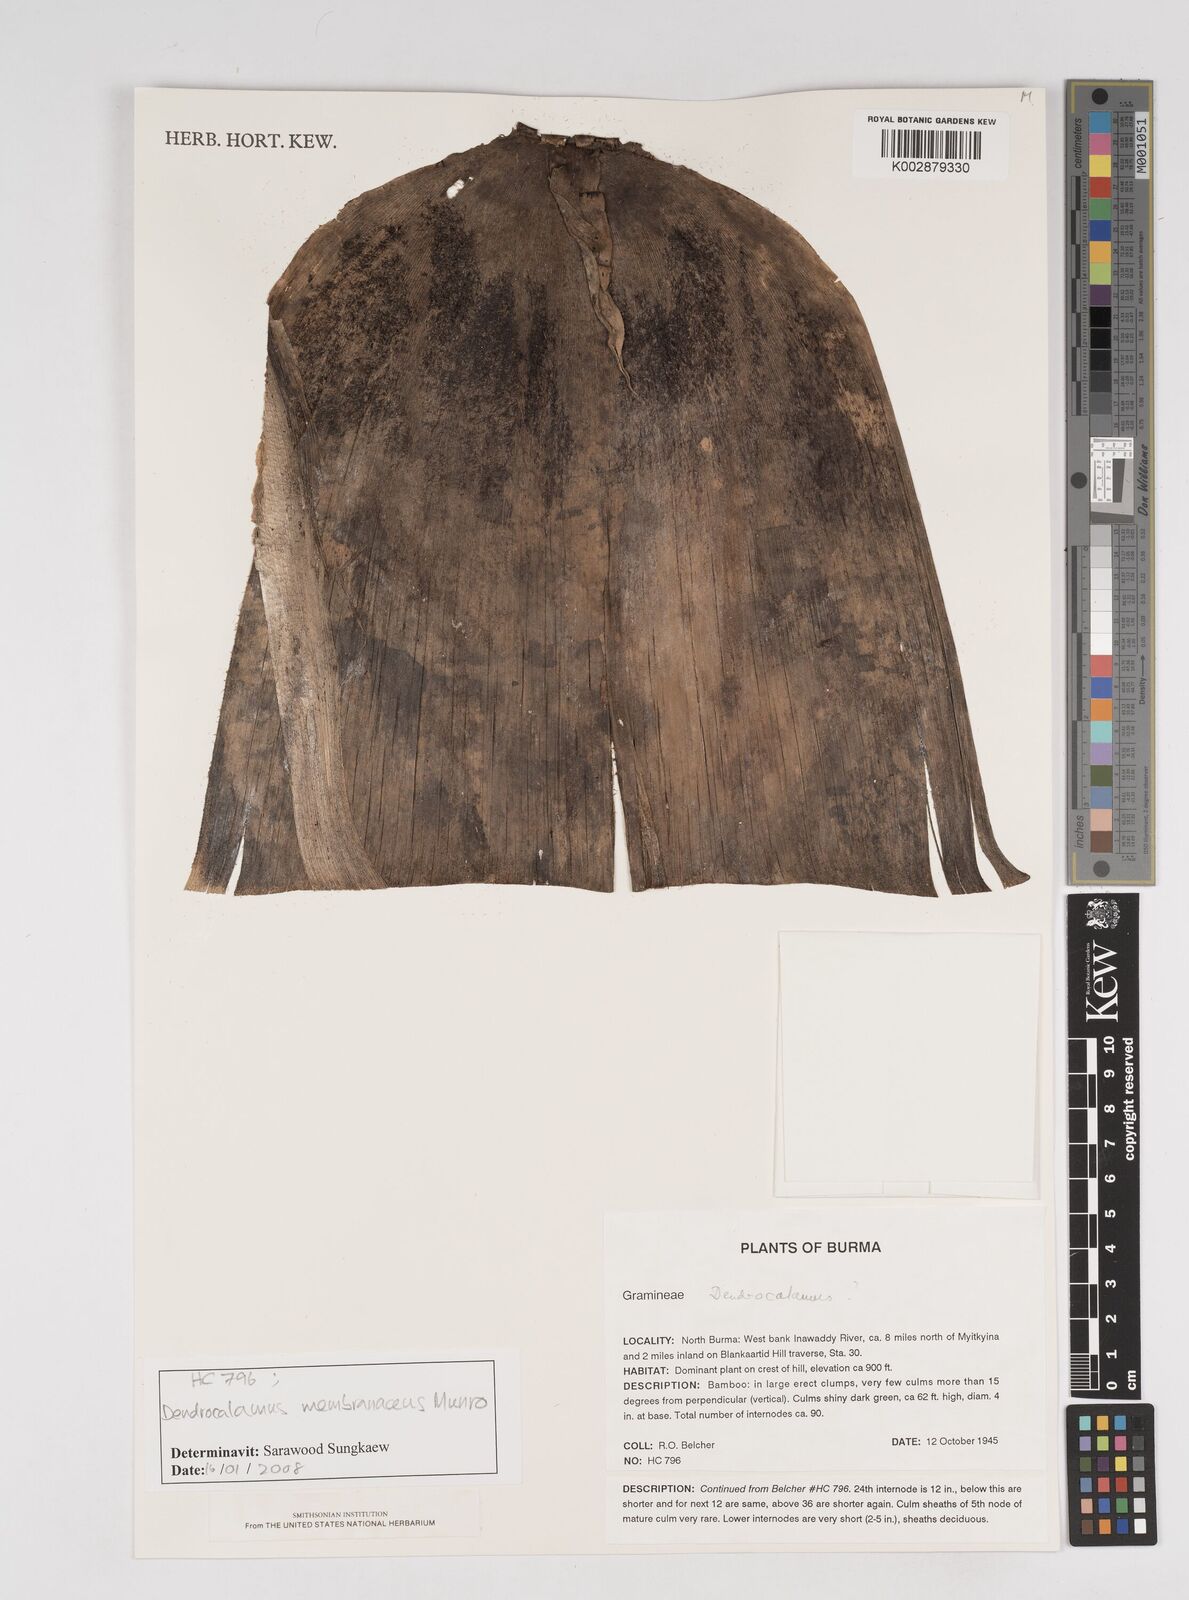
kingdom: Plantae
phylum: Tracheophyta
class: Liliopsida
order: Poales
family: Poaceae
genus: Dendrocalamus
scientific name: Dendrocalamus
